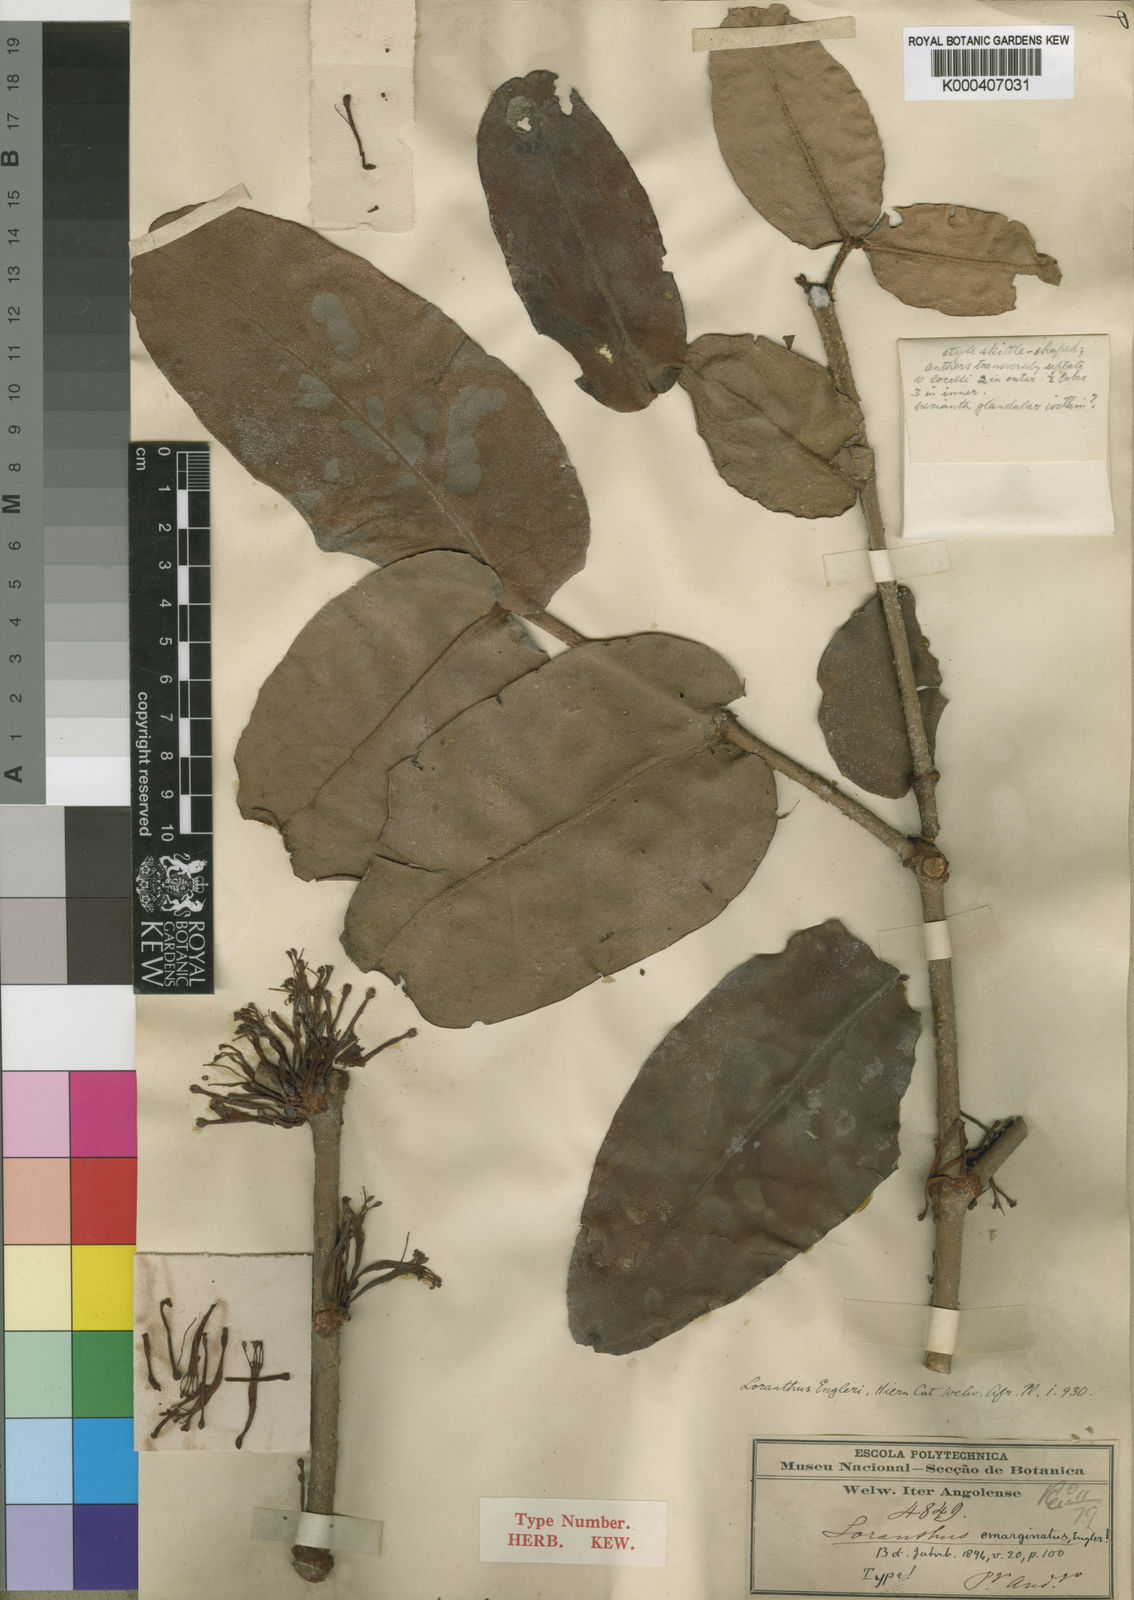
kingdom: Plantae
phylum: Tracheophyta
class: Magnoliopsida
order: Santalales
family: Loranthaceae
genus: Phragmanthera
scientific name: Phragmanthera engleri
